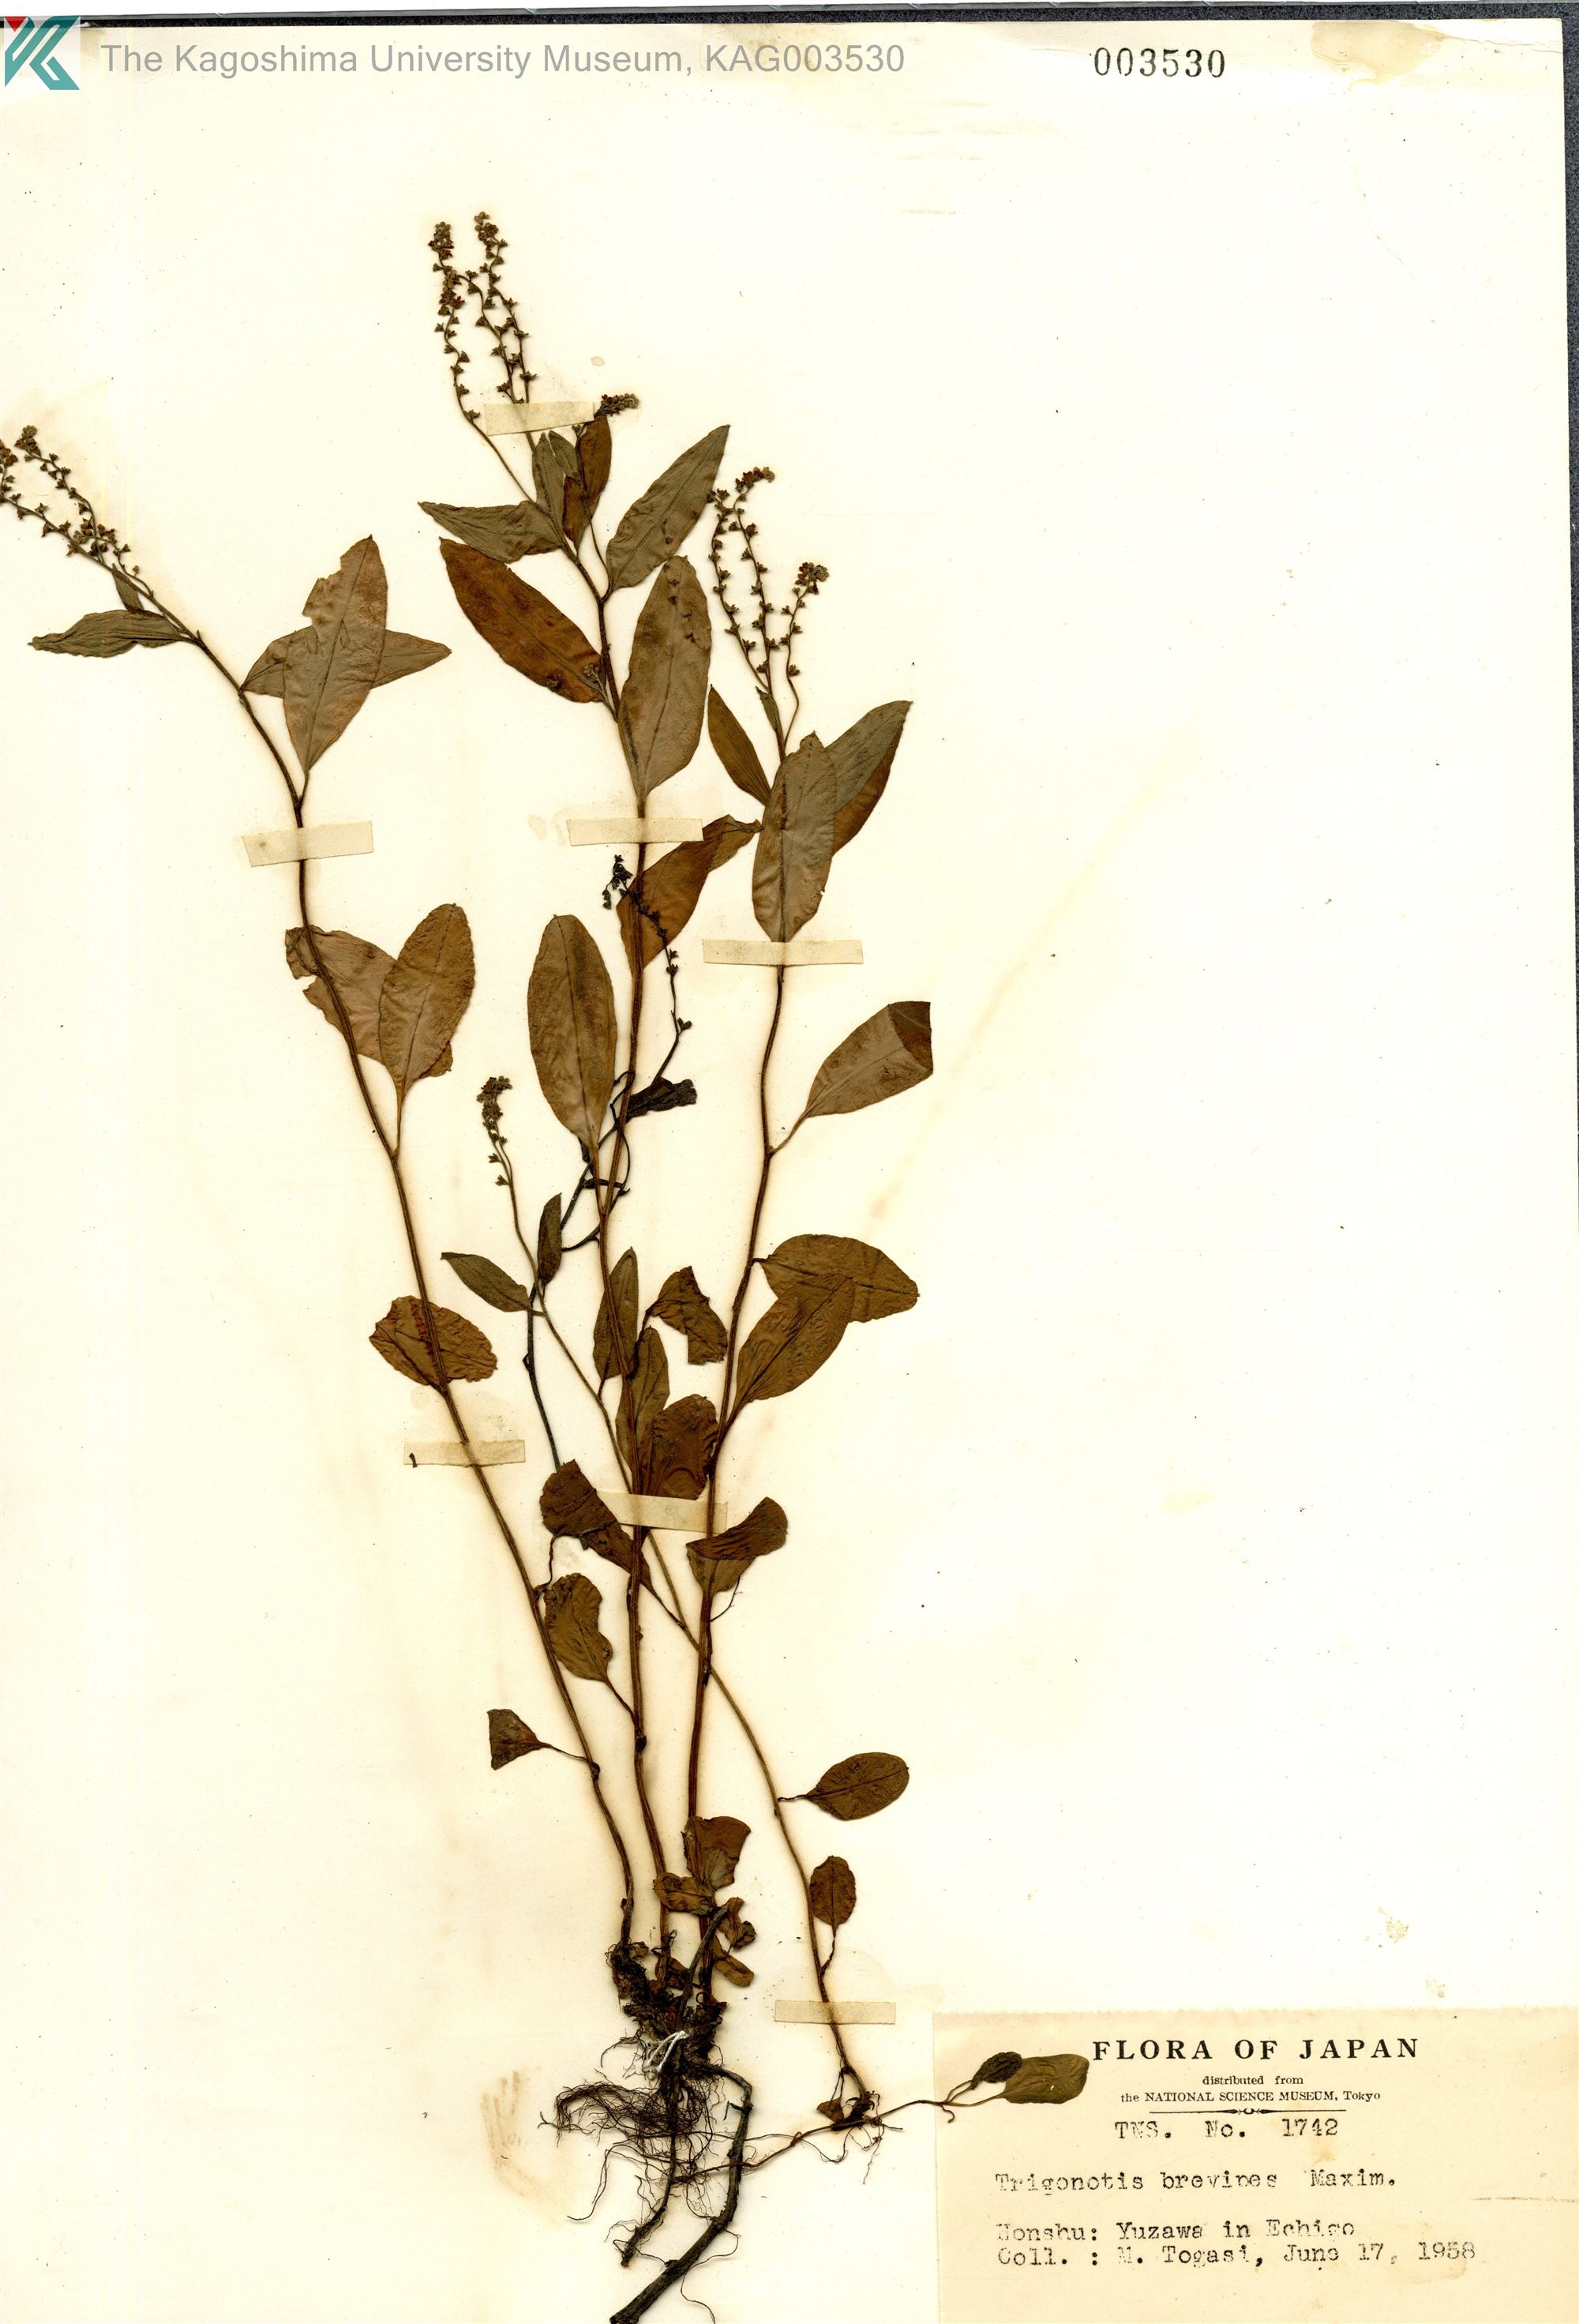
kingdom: Plantae
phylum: Tracheophyta
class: Magnoliopsida
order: Boraginales
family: Boraginaceae
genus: Trigonotis
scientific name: Trigonotis brevipes
